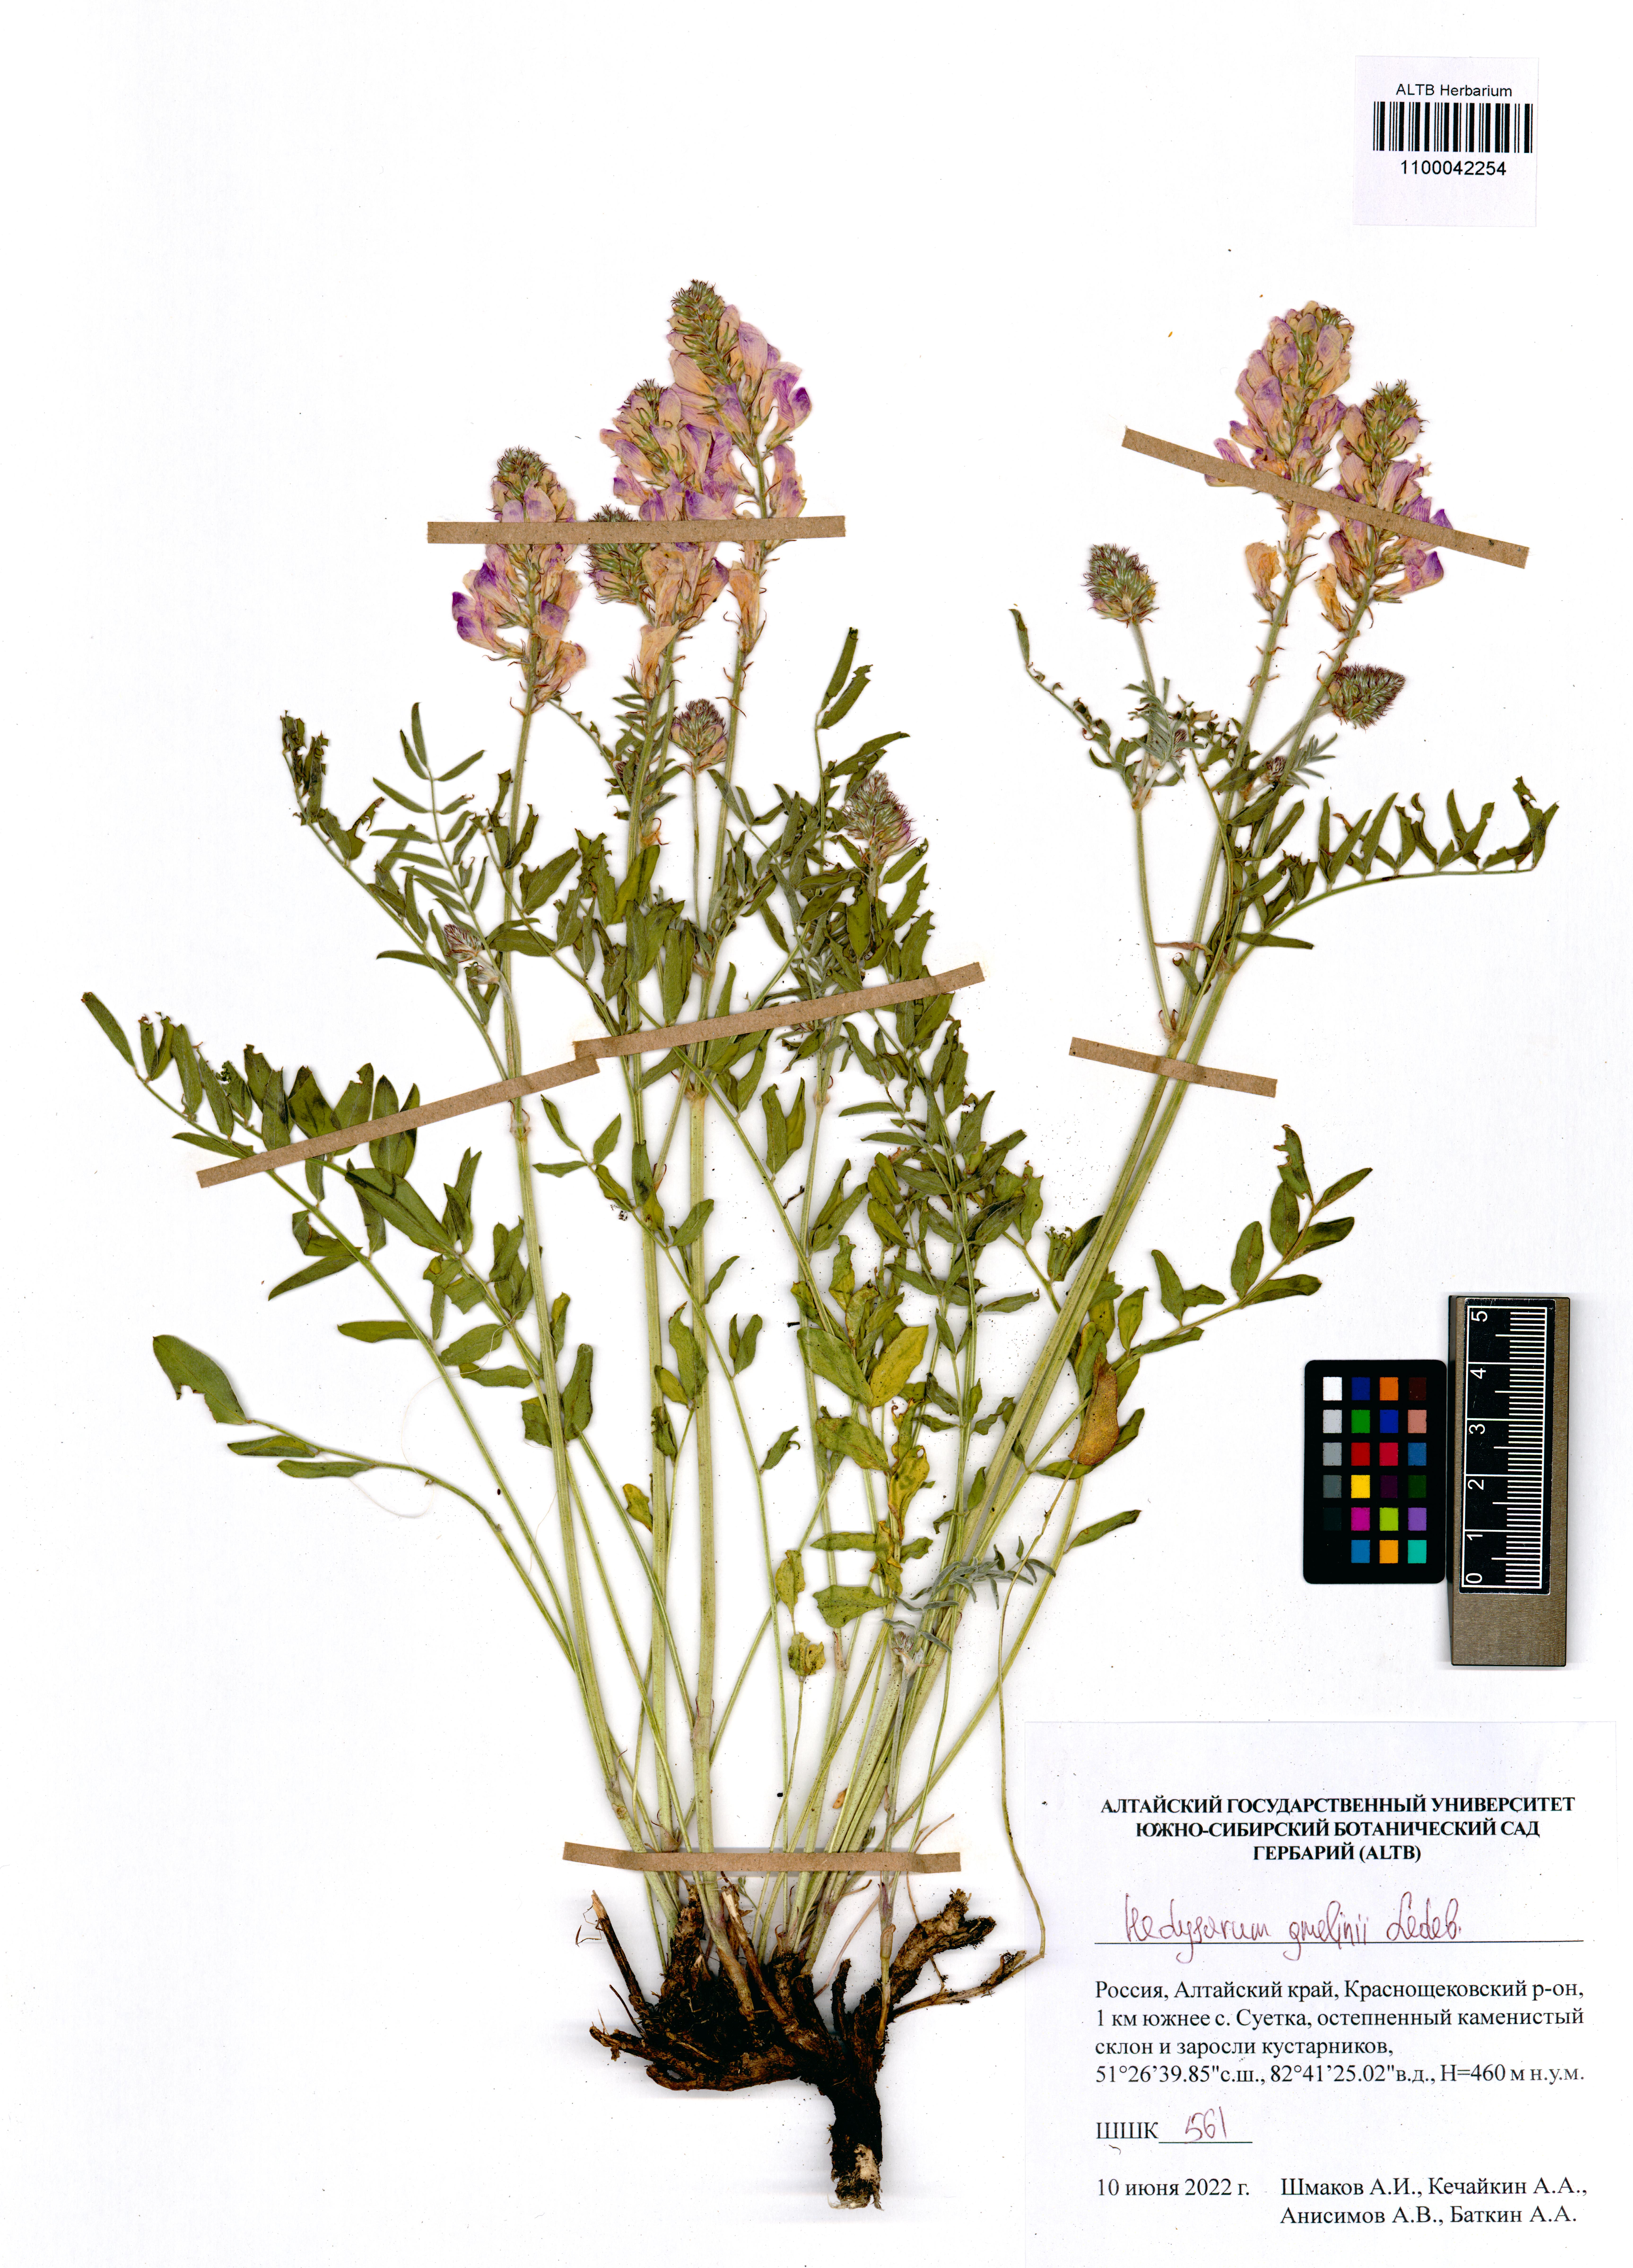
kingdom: Plantae
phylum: Tracheophyta
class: Magnoliopsida
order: Fabales
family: Fabaceae
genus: Hedysarum
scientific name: Hedysarum gmelinii
